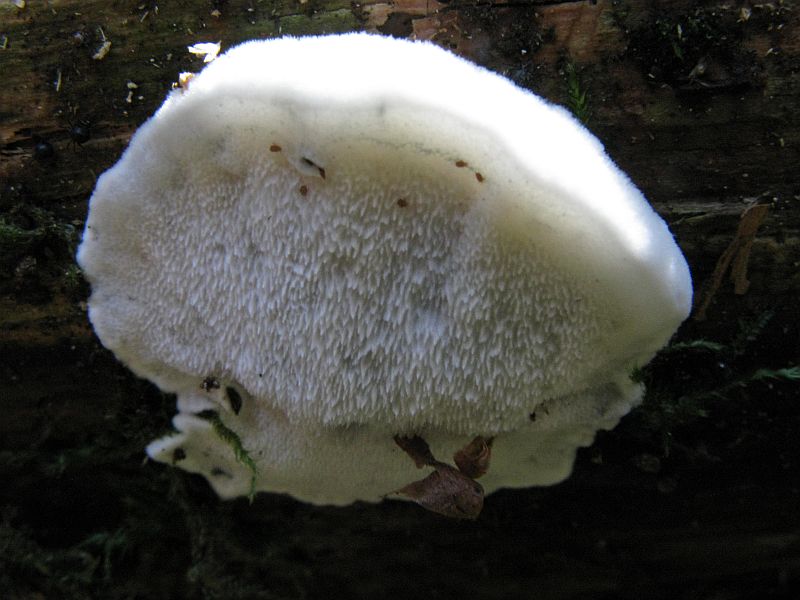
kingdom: Fungi
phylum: Basidiomycota
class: Agaricomycetes
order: Polyporales
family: Polyporaceae
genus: Cyanosporus
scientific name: Cyanosporus caesius
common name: blålig kødporesvamp
